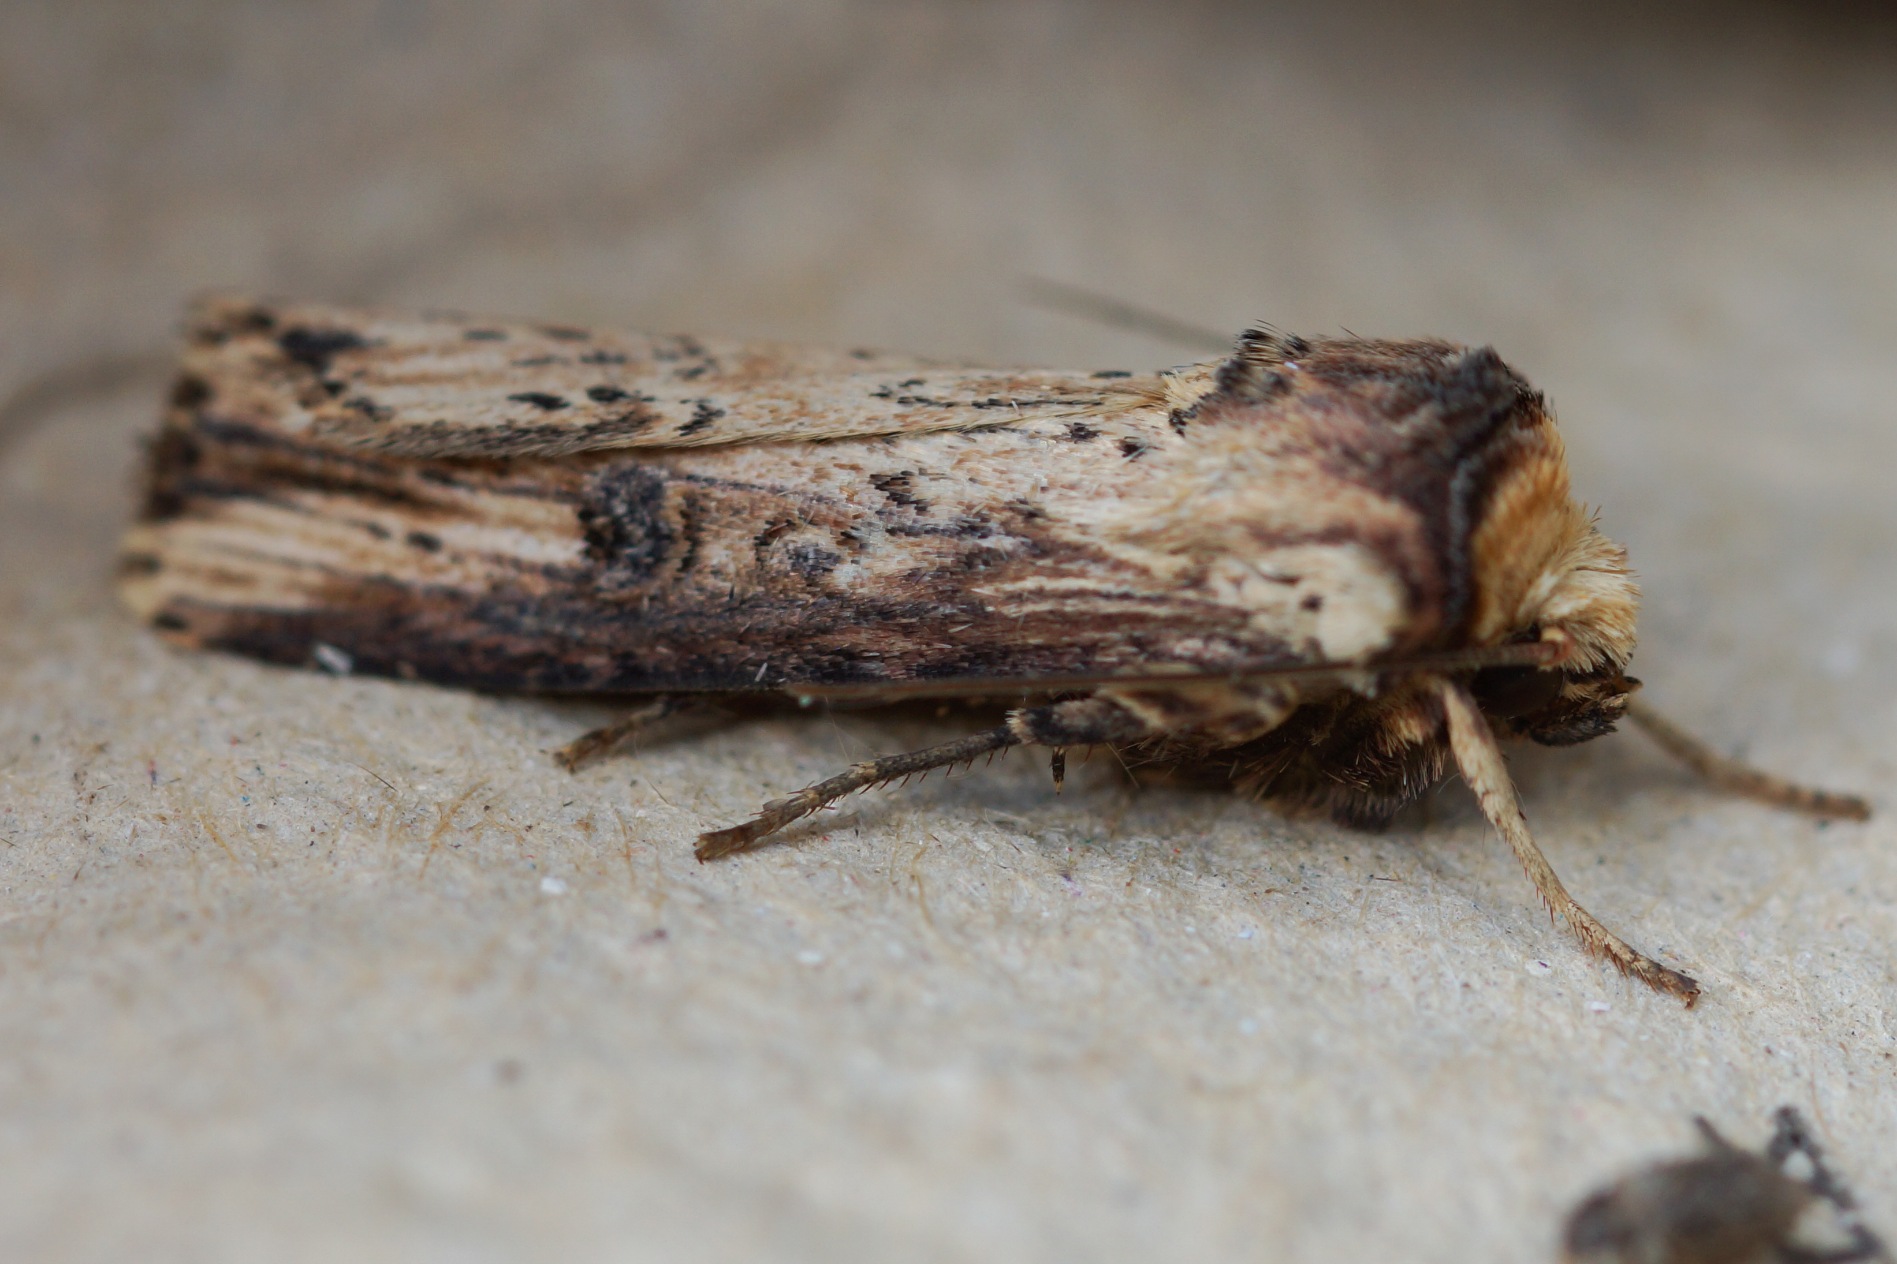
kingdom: Animalia
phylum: Arthropoda
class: Insecta
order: Lepidoptera
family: Noctuidae
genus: Axylia
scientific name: Axylia putris
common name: Brændeugle
